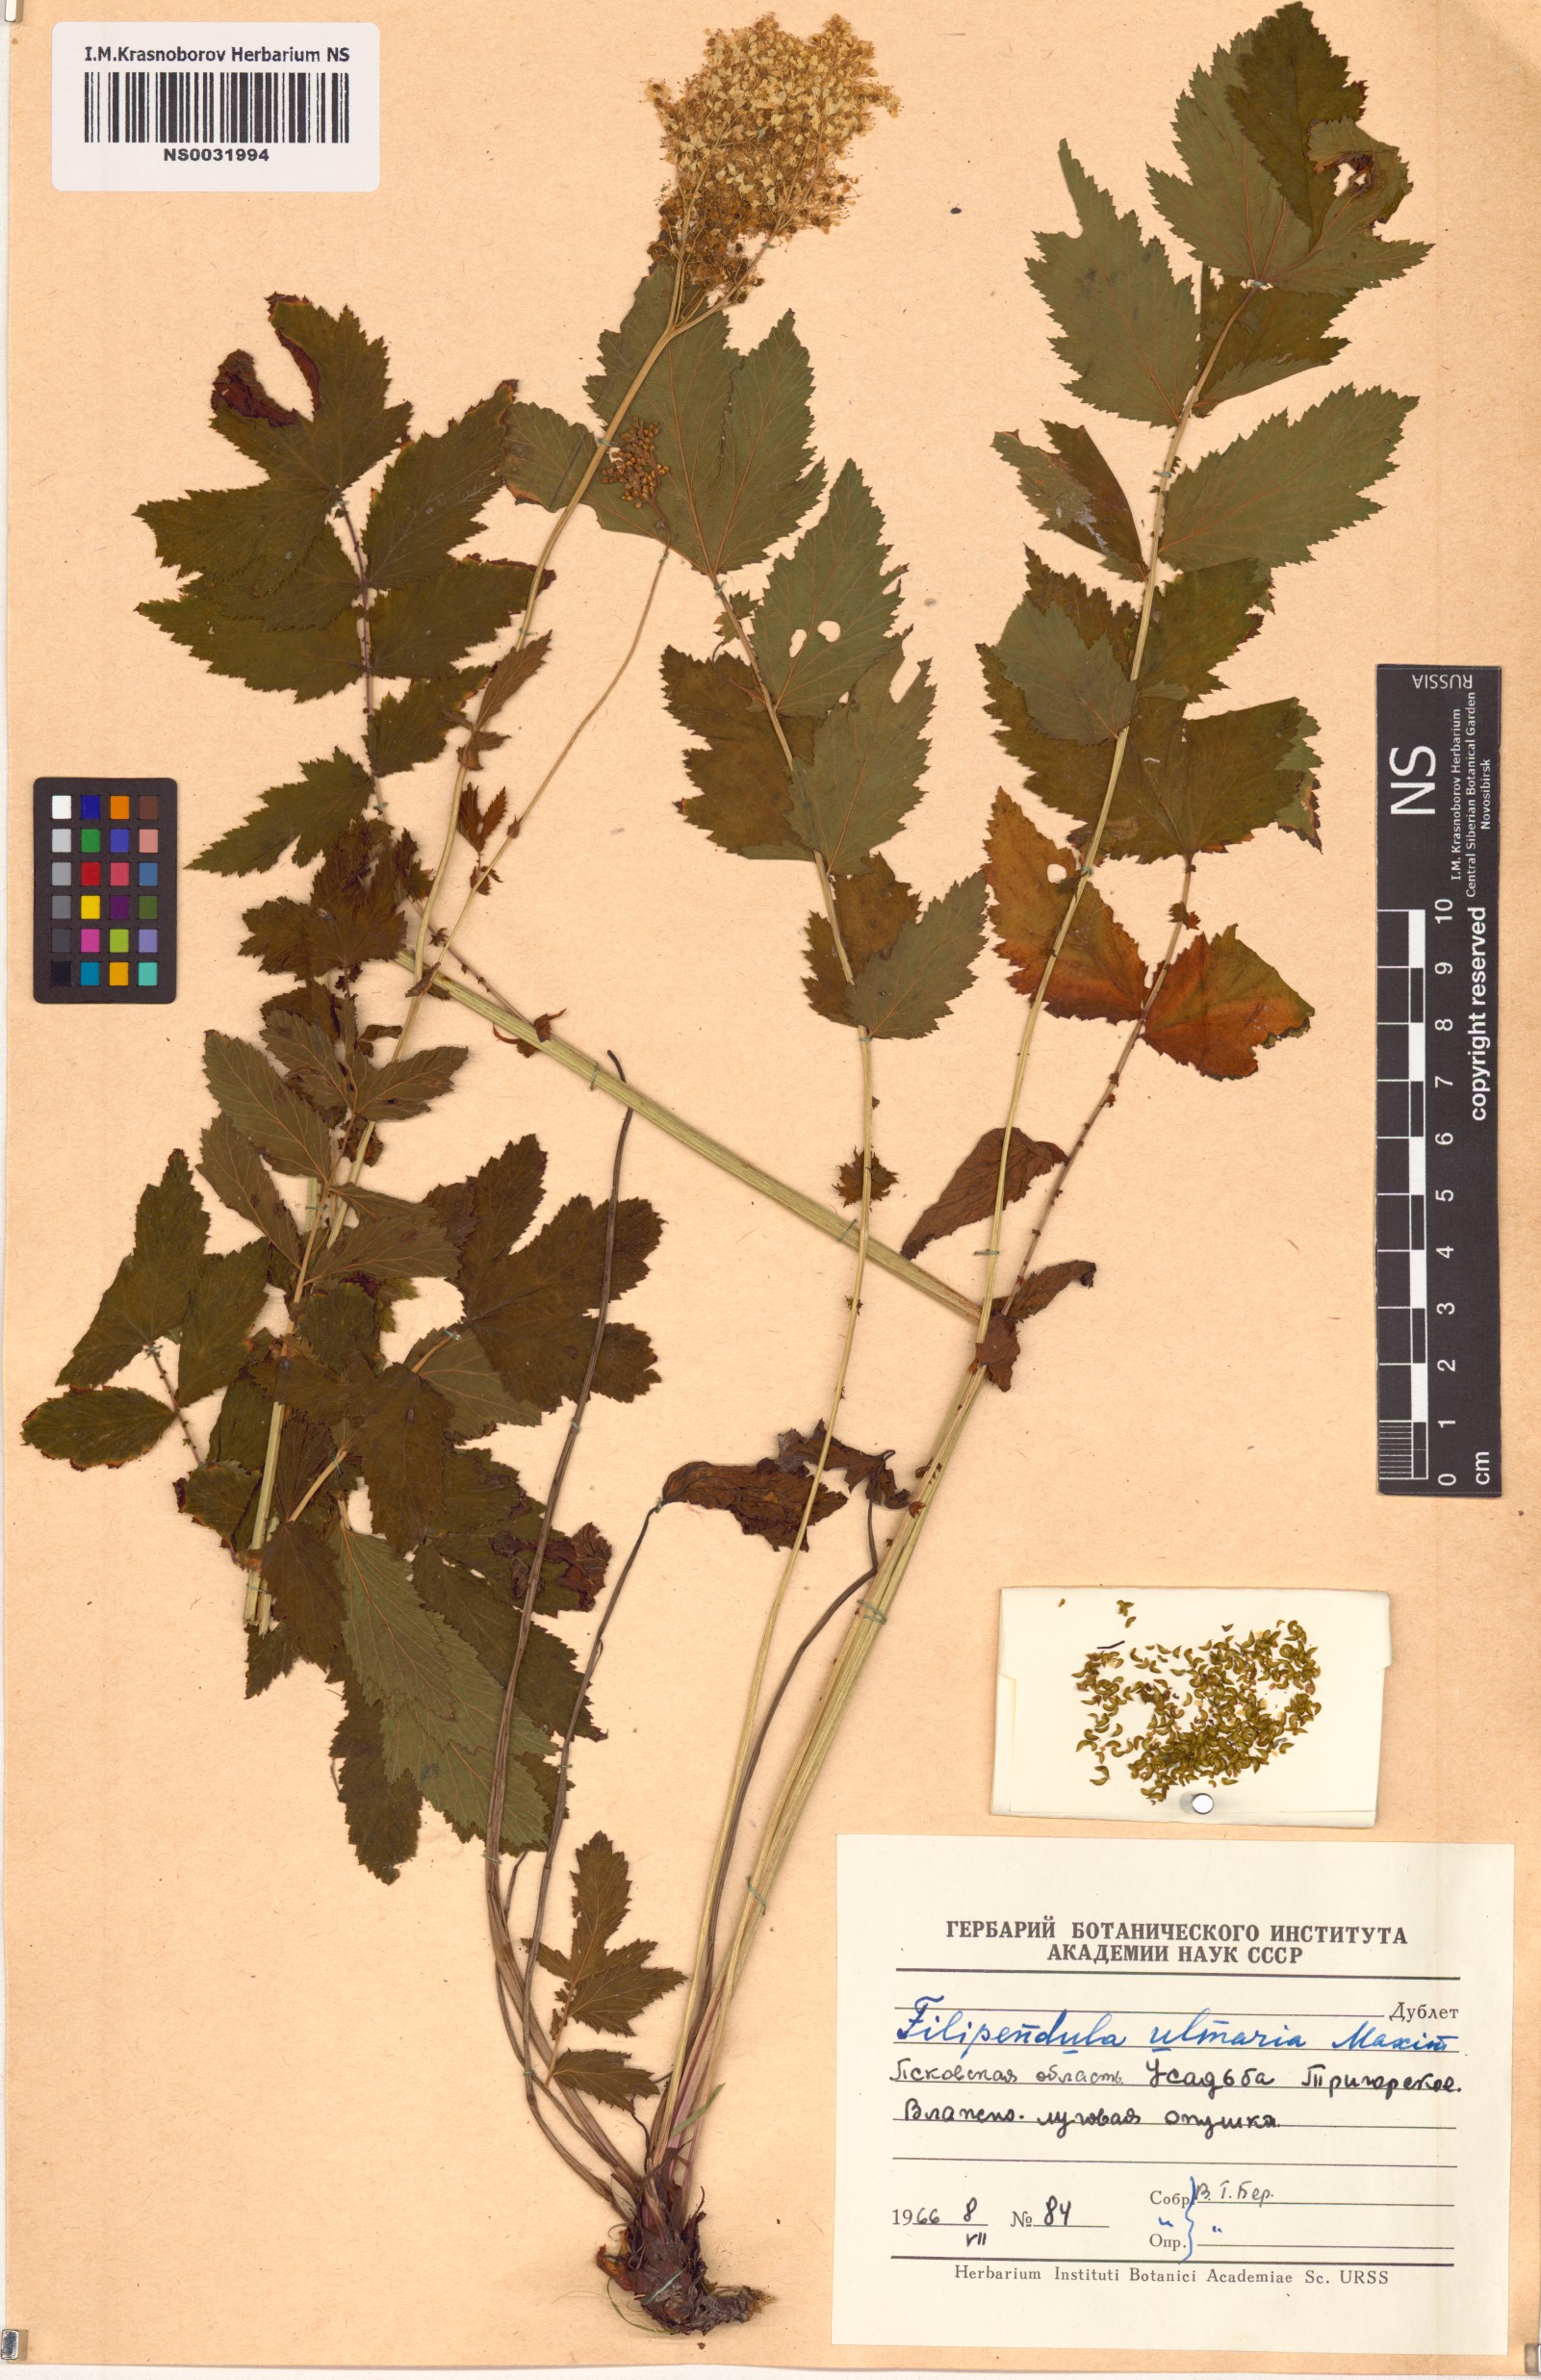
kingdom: Plantae
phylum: Tracheophyta
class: Magnoliopsida
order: Rosales
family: Rosaceae
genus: Filipendula
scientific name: Filipendula ulmaria
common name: Meadowsweet
